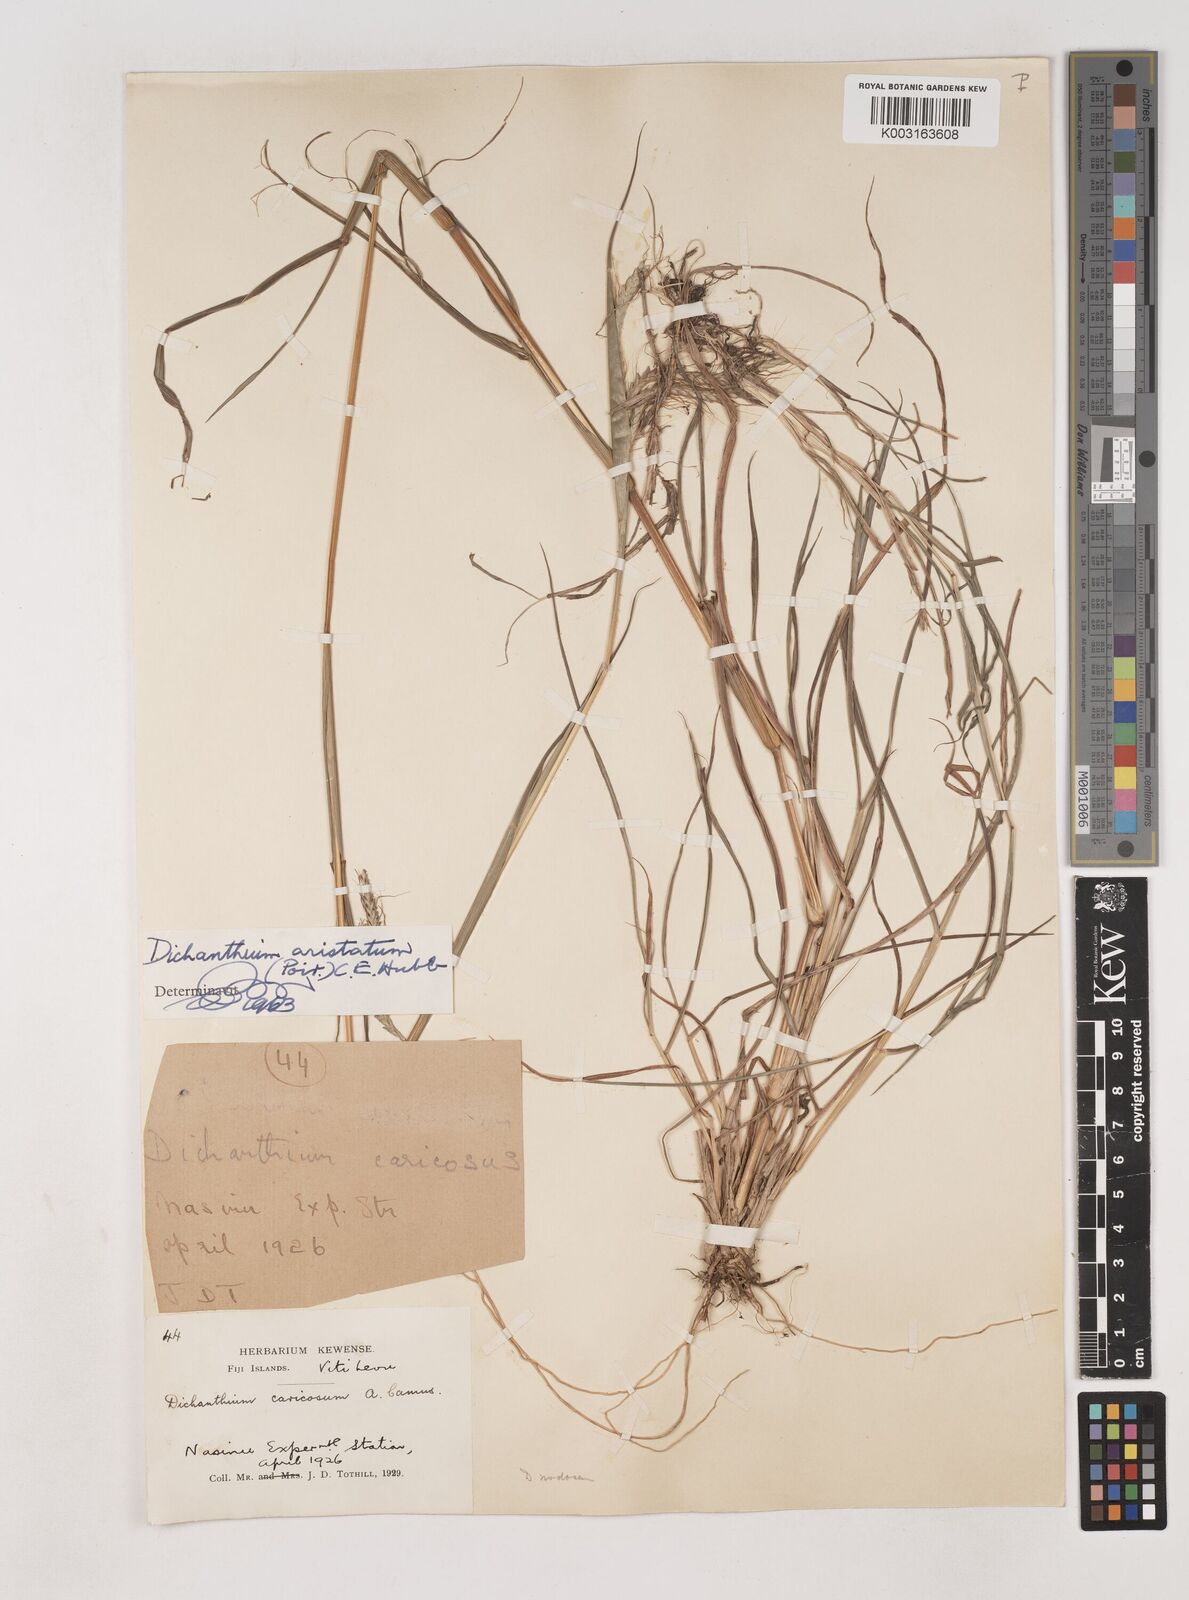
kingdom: Plantae
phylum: Tracheophyta
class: Liliopsida
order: Poales
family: Poaceae
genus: Dichanthium
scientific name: Dichanthium aristatum
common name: Angleton bluestem
